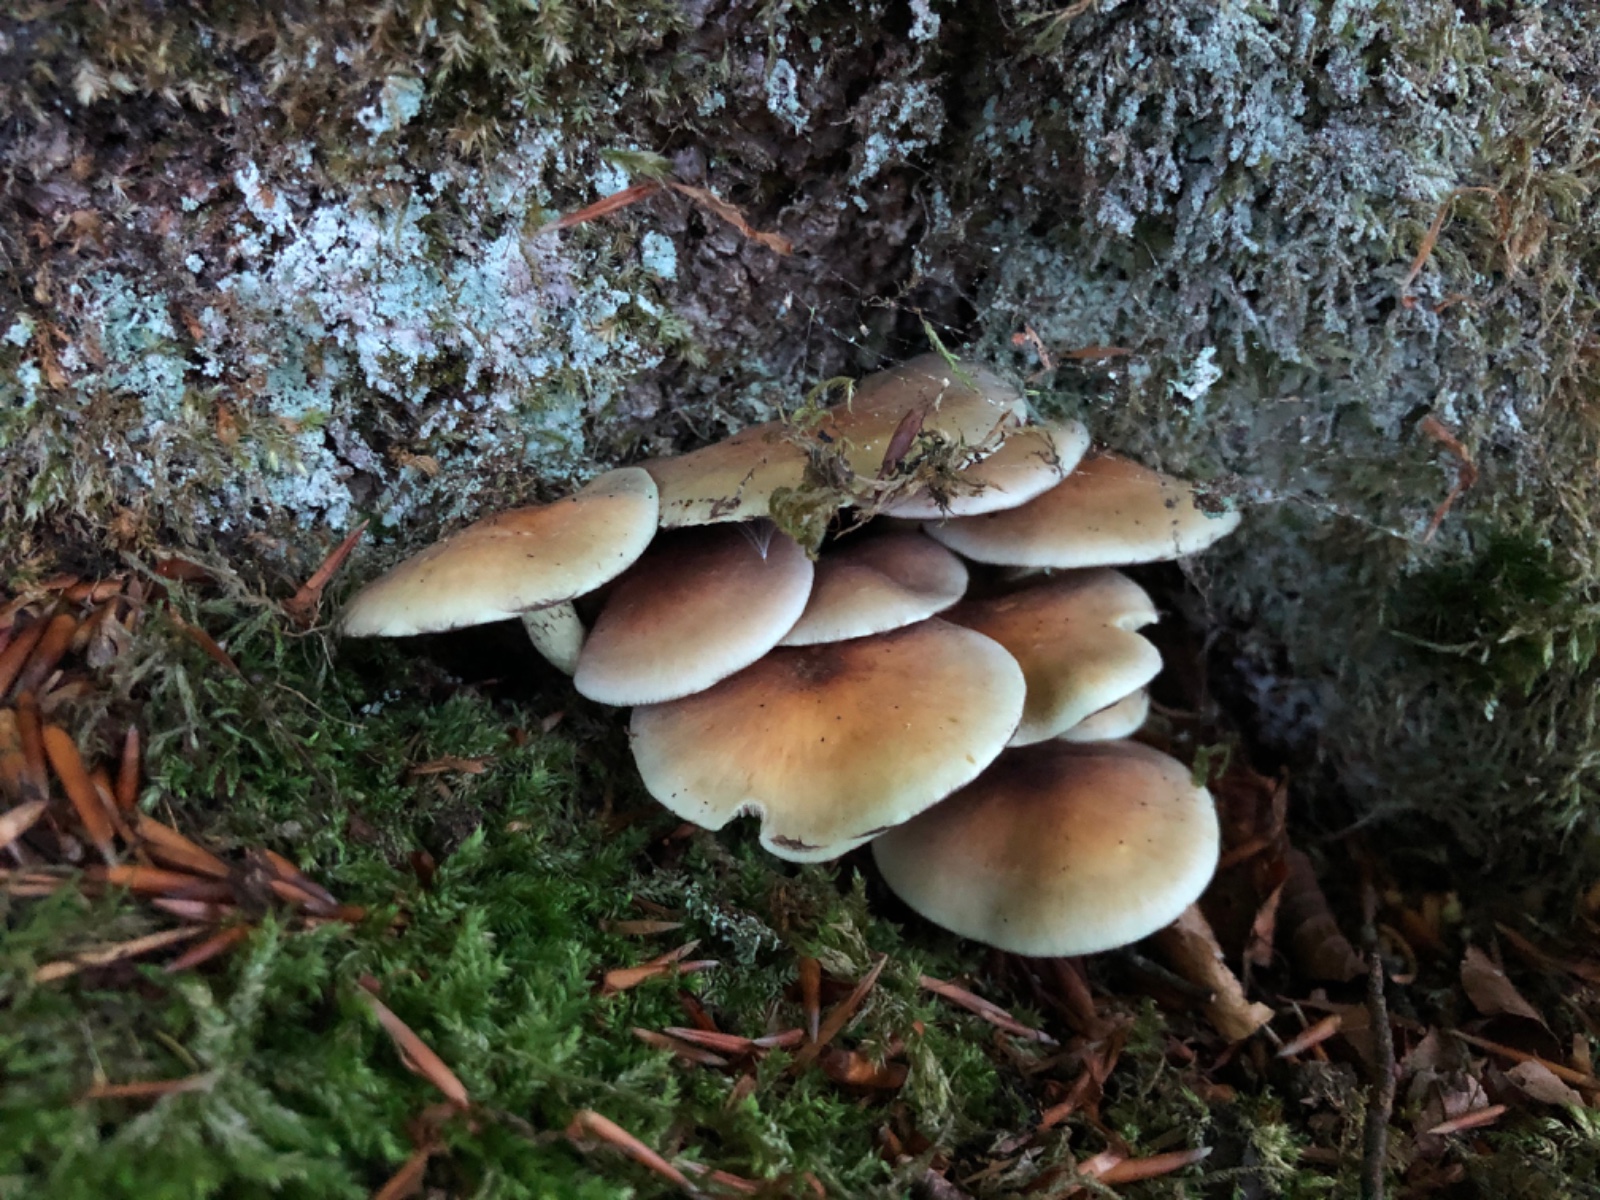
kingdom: Fungi
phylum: Basidiomycota
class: Agaricomycetes
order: Agaricales
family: Strophariaceae
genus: Hypholoma
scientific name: Hypholoma fasciculare
